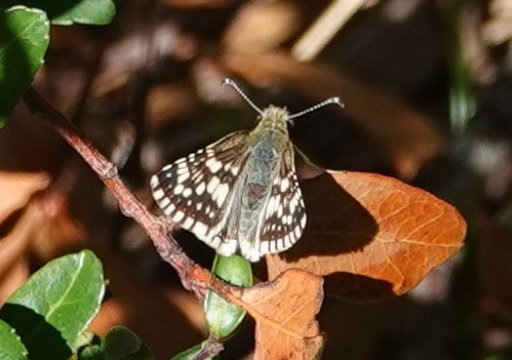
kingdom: Animalia
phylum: Arthropoda
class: Insecta
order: Lepidoptera
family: Hesperiidae
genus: Pyrgus
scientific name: Pyrgus communis
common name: White Checkered-Skipper
